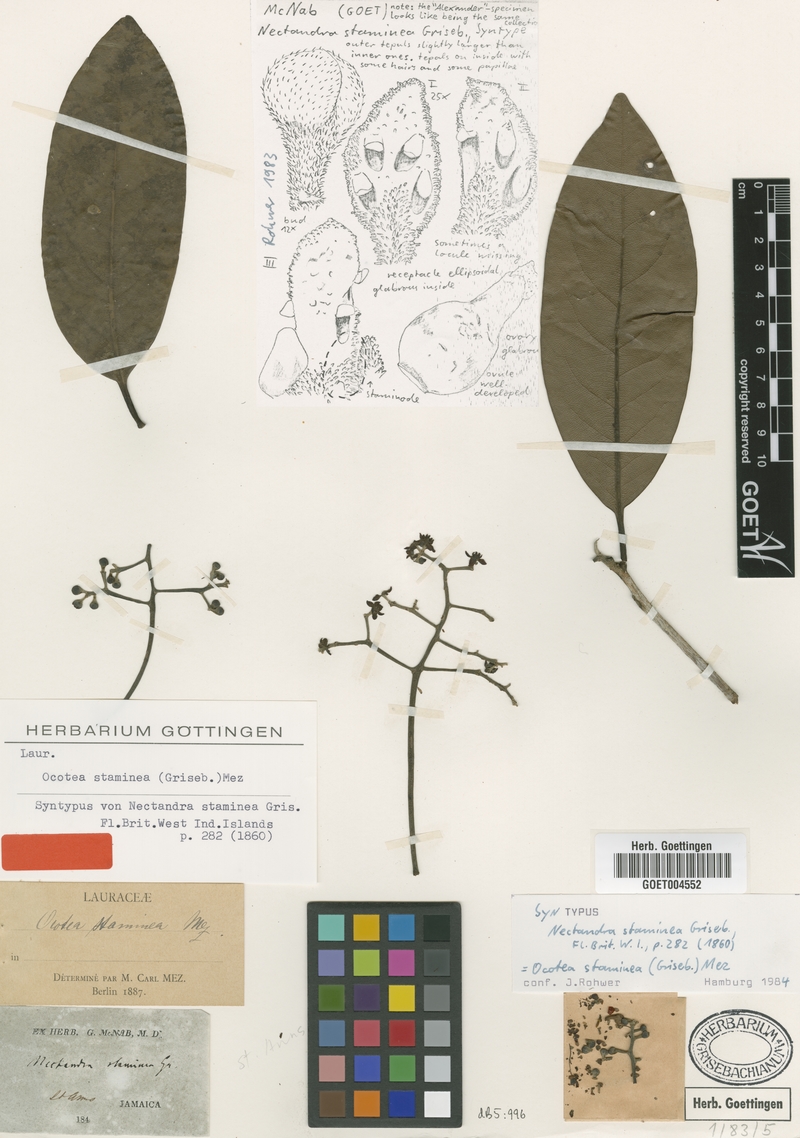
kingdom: Plantae
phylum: Tracheophyta
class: Magnoliopsida
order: Laurales
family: Lauraceae
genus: Mespilodaphne
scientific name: Mespilodaphne staminea
